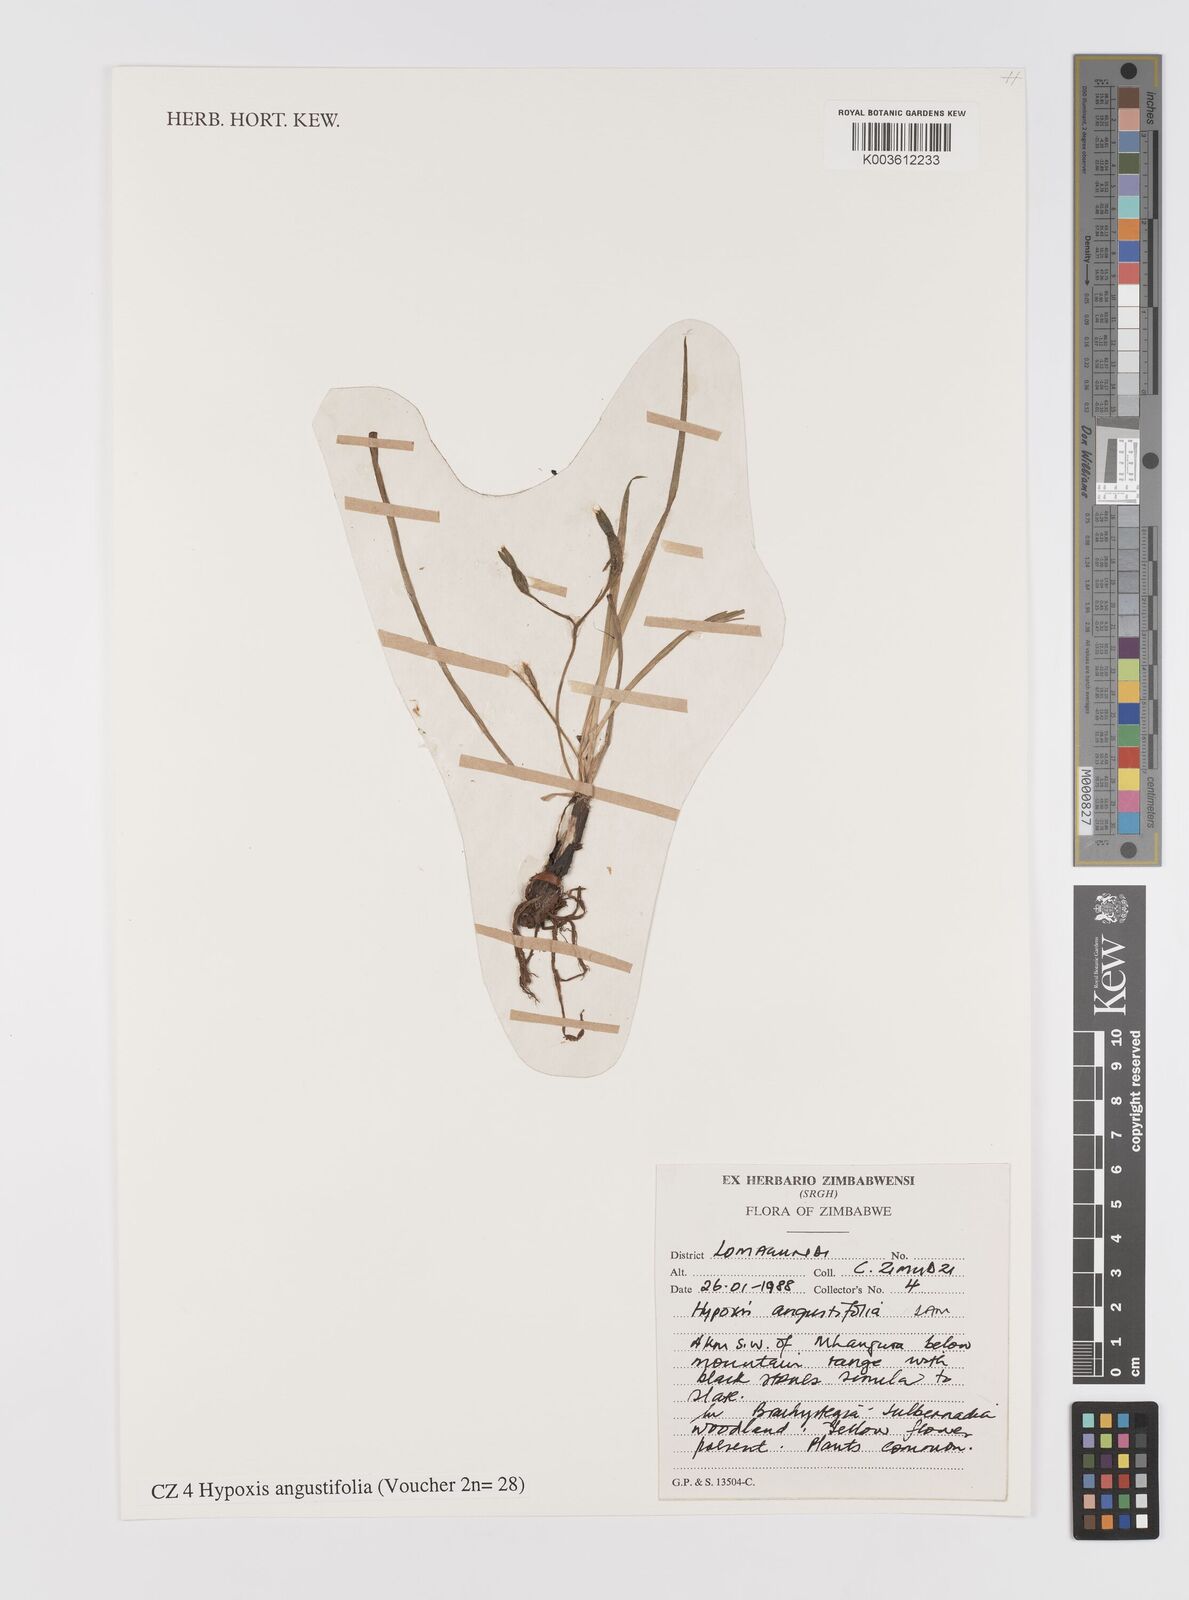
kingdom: Plantae
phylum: Tracheophyta
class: Liliopsida
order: Asparagales
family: Hypoxidaceae
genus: Hypoxis
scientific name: Hypoxis angustifolia
